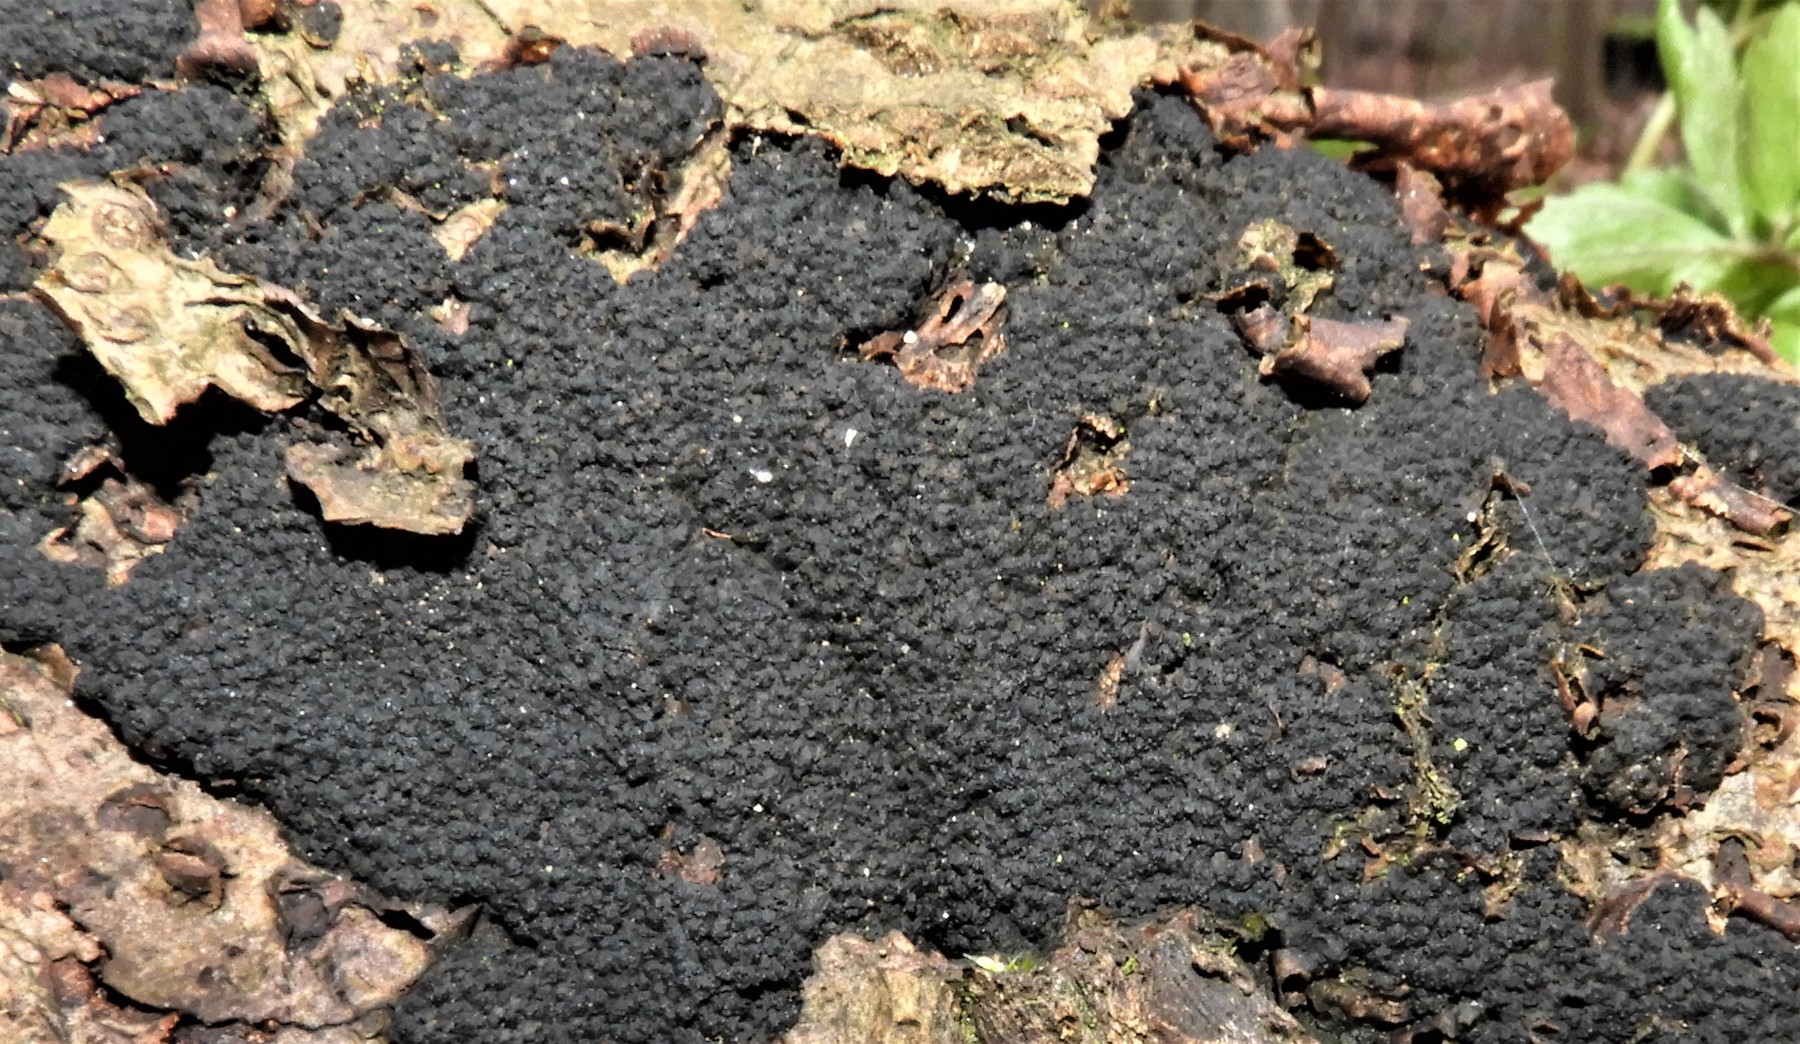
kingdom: Fungi
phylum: Ascomycota
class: Sordariomycetes
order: Xylariales
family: Diatrypaceae
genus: Eutypa
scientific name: Eutypa spinosa
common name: grov kulskorpe
